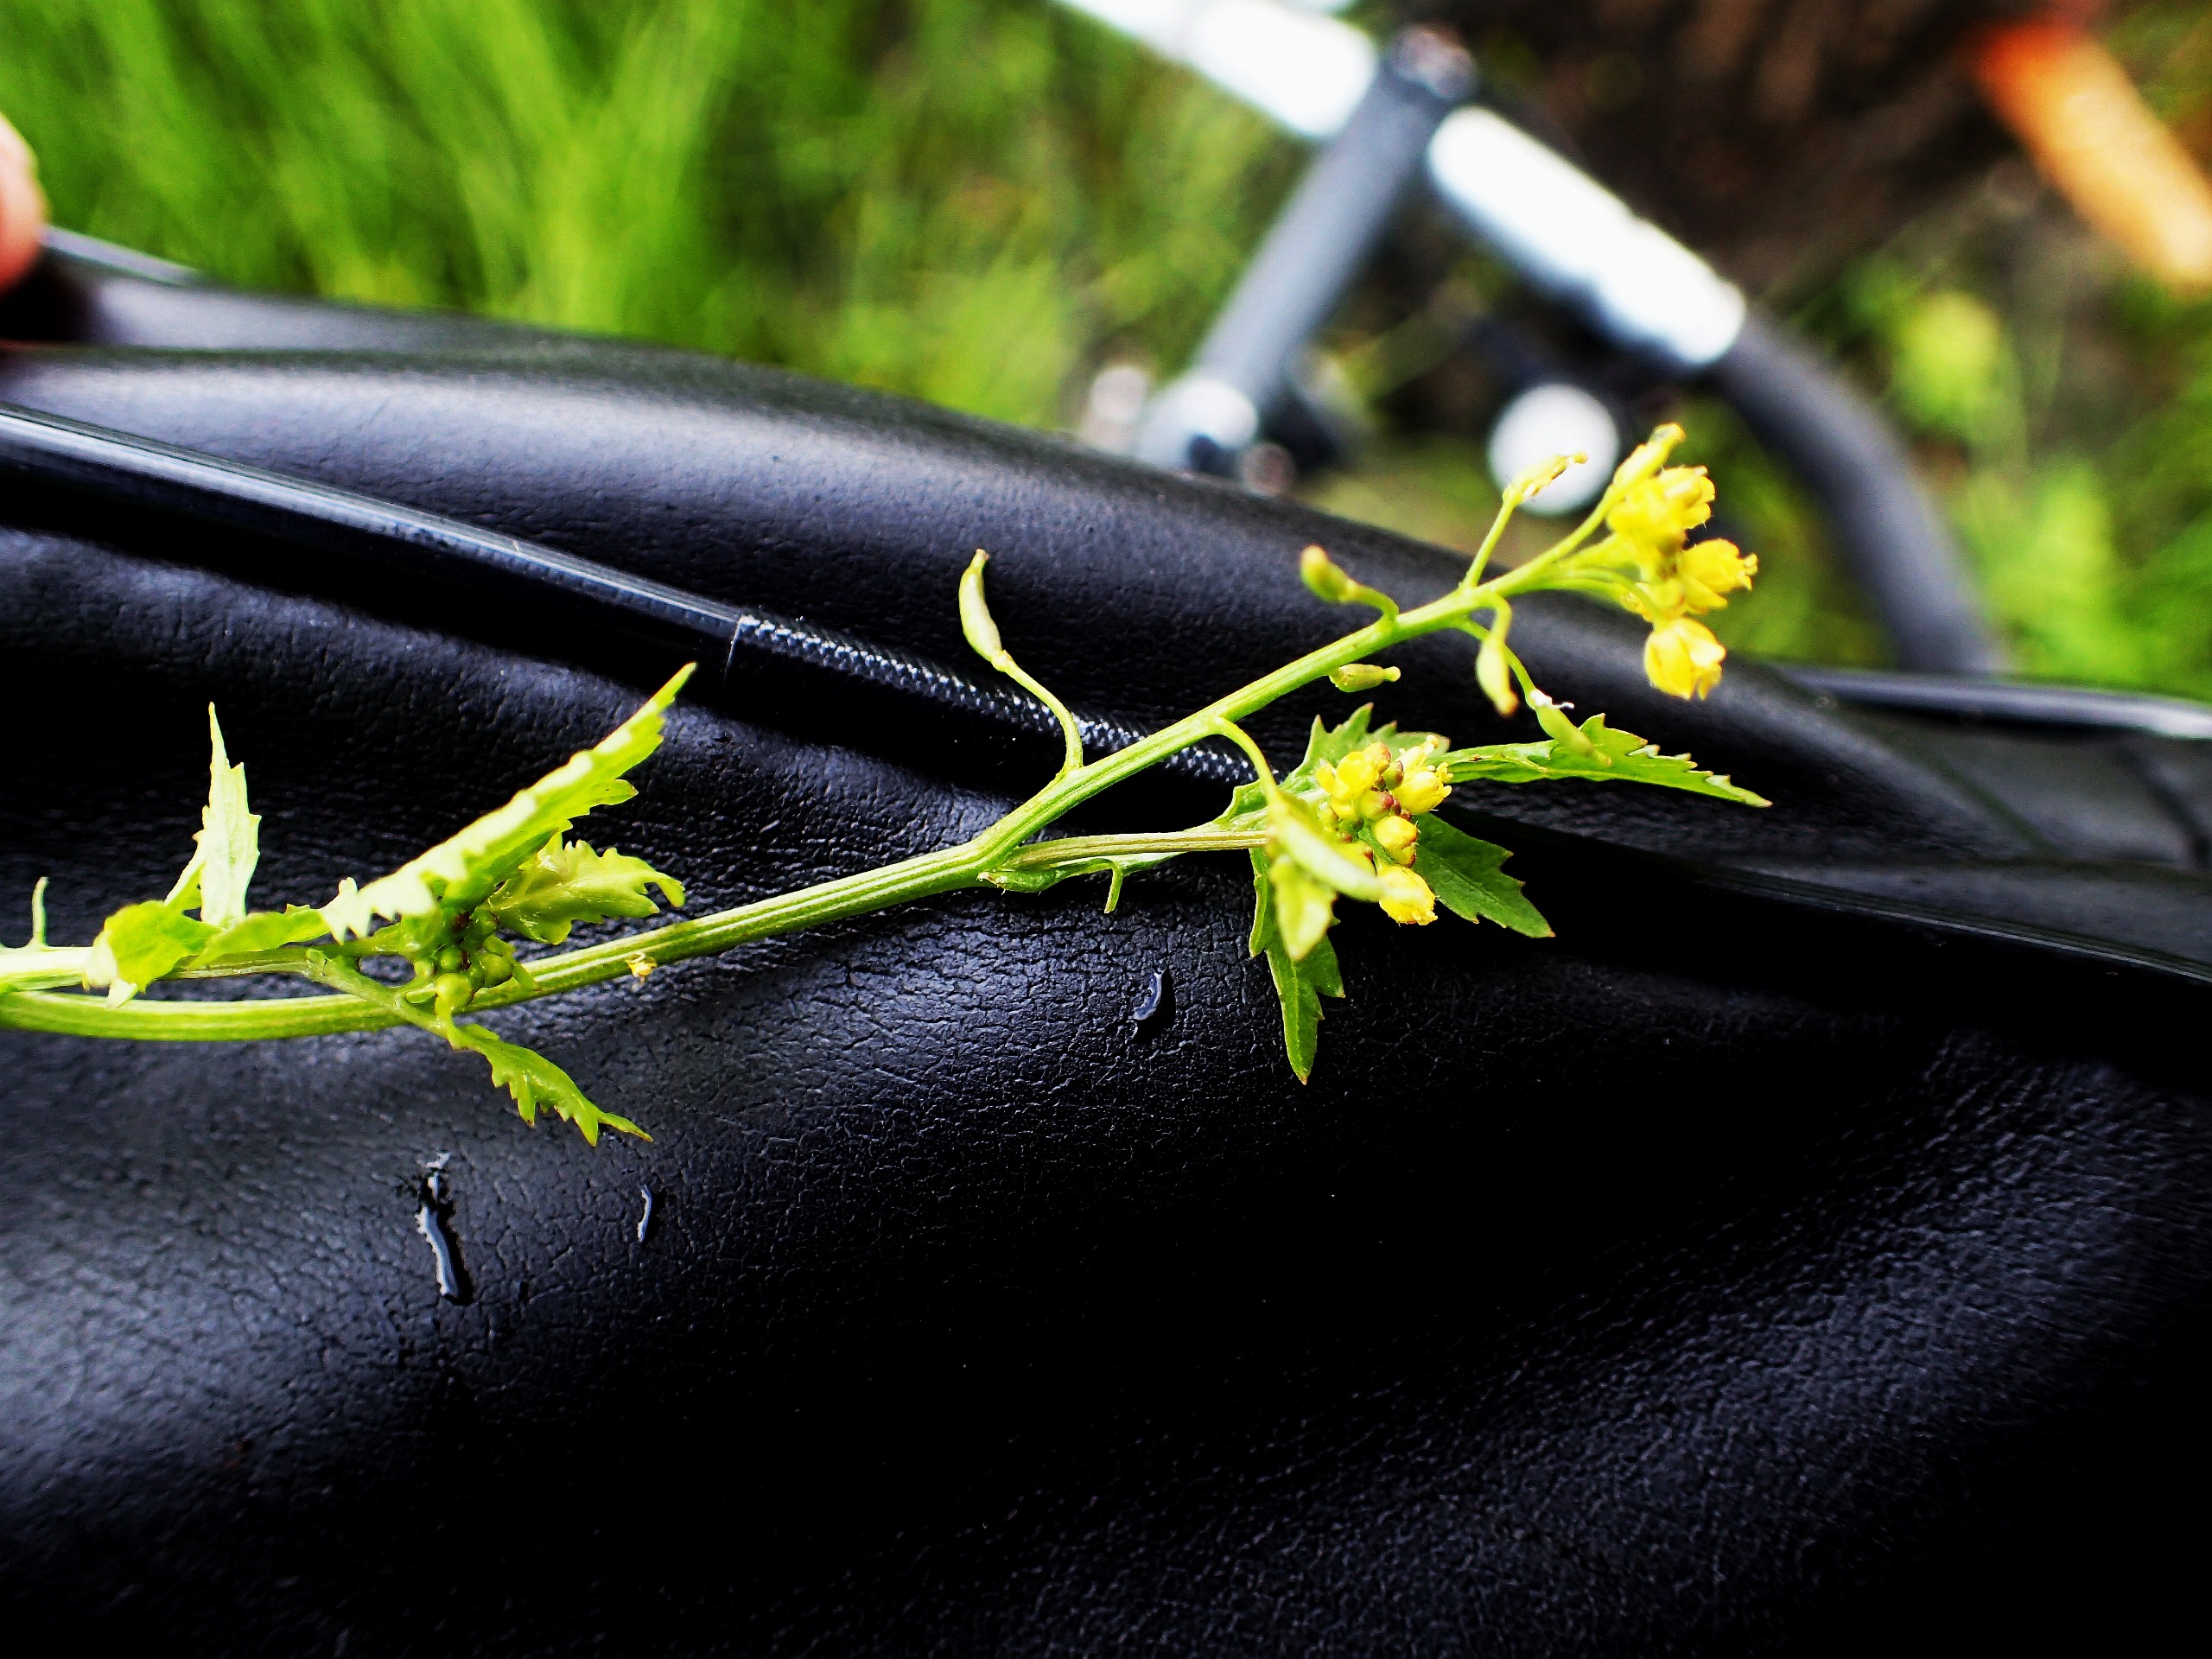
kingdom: Plantae
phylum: Tracheophyta
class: Magnoliopsida
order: Brassicales
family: Brassicaceae
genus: Rorippa
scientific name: Rorippa palustris
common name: Kær-guldkarse
